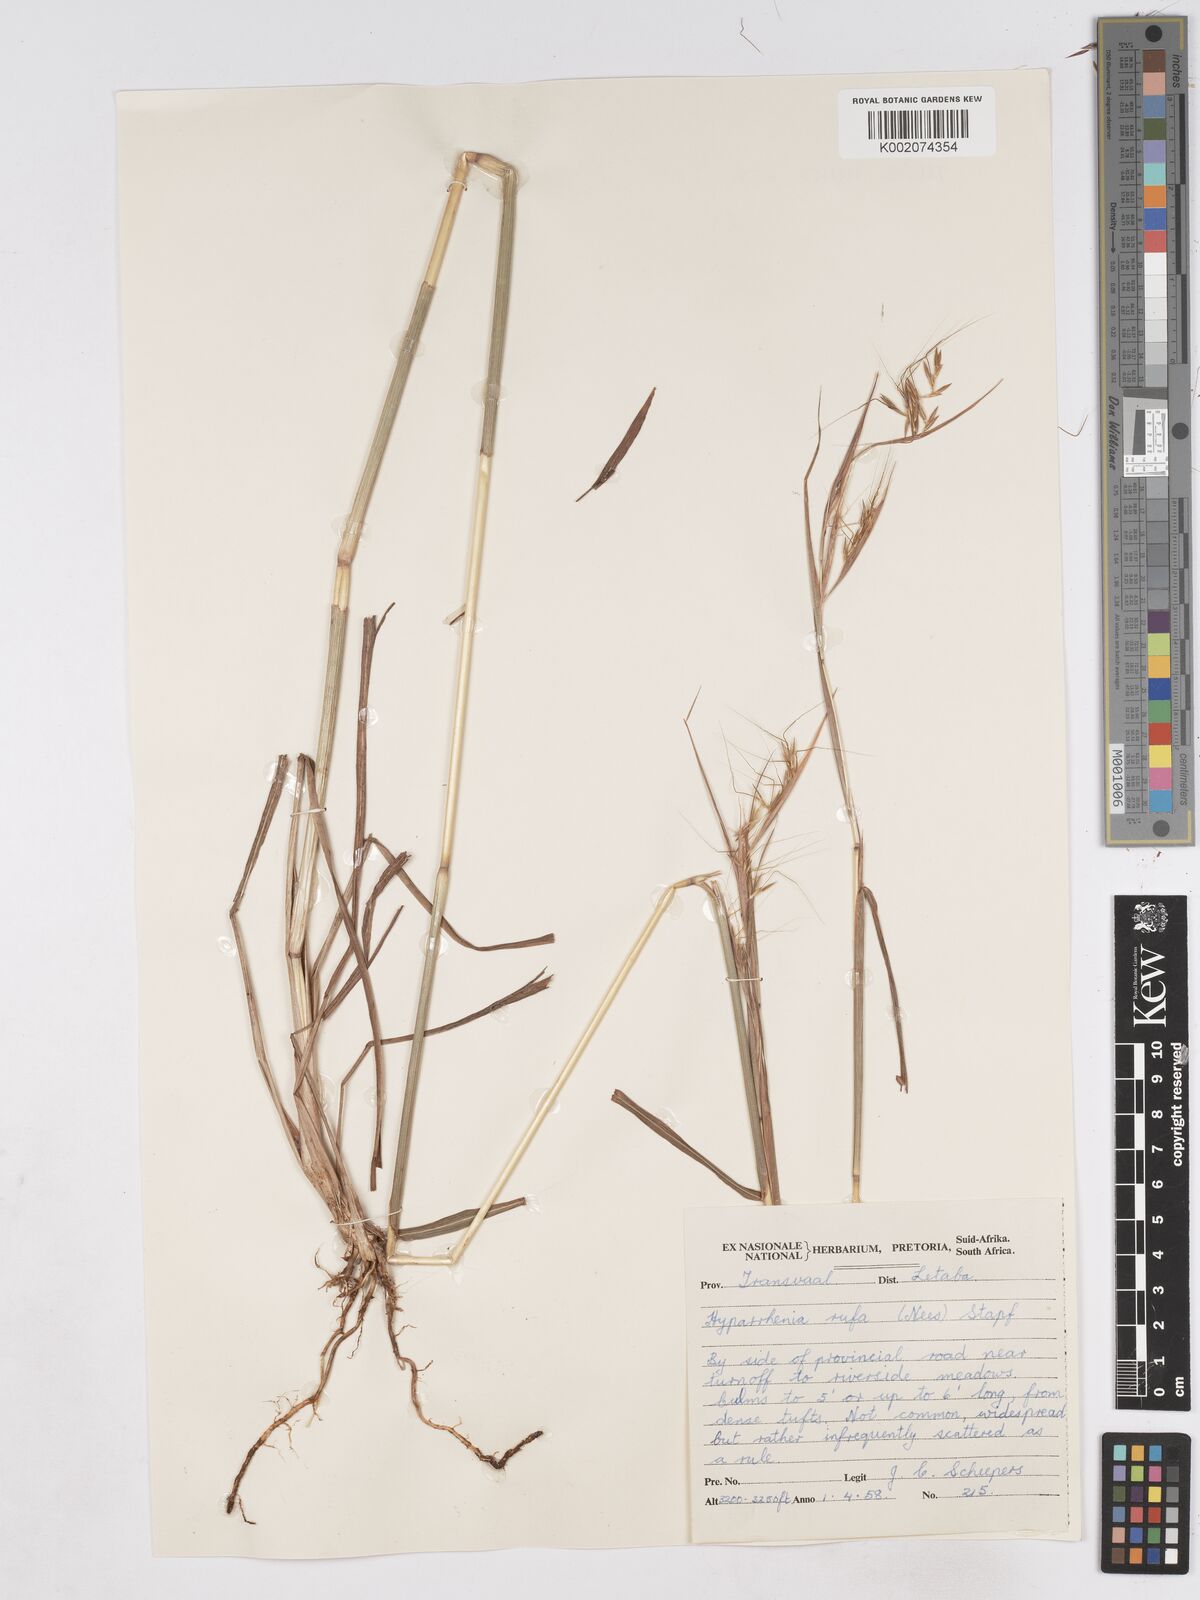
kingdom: Plantae
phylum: Tracheophyta
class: Liliopsida
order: Poales
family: Poaceae
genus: Hyparrhenia
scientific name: Hyparrhenia rufa
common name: Jaraguagrass
